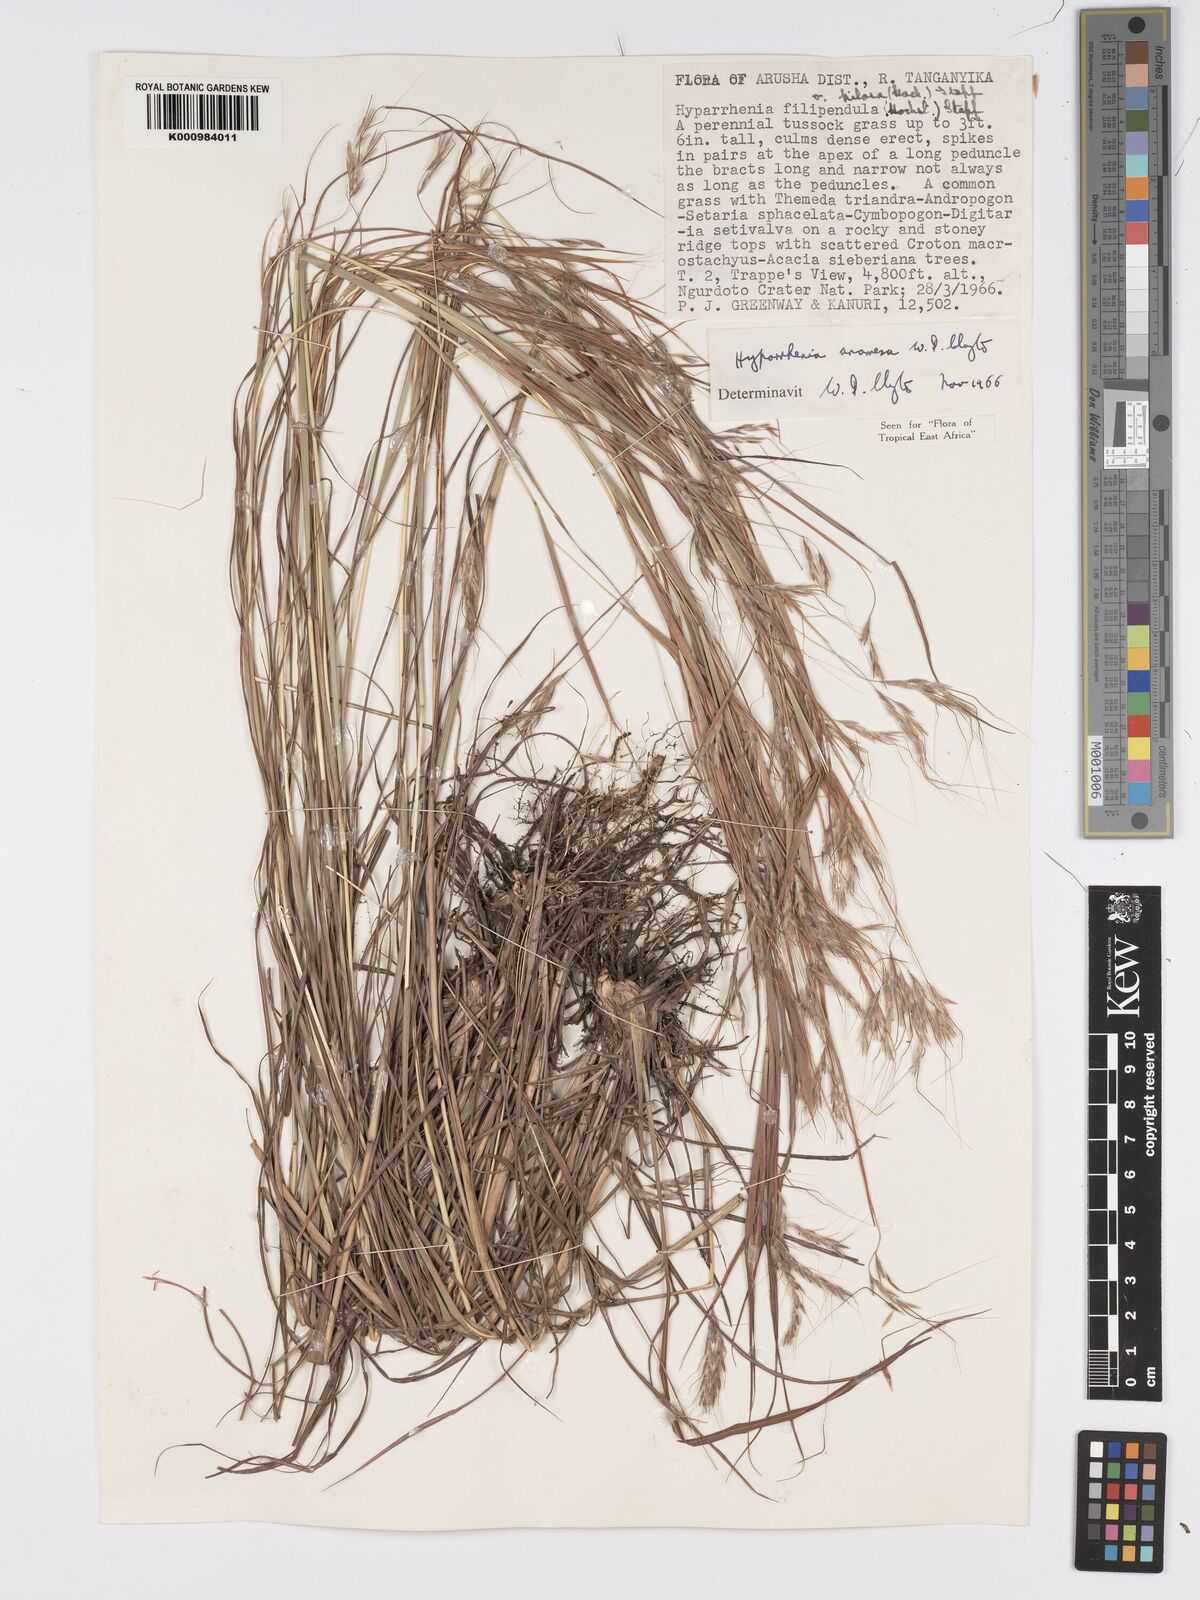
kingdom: Plantae
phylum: Tracheophyta
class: Liliopsida
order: Poales
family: Poaceae
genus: Hyparrhenia
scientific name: Hyparrhenia anamesa
